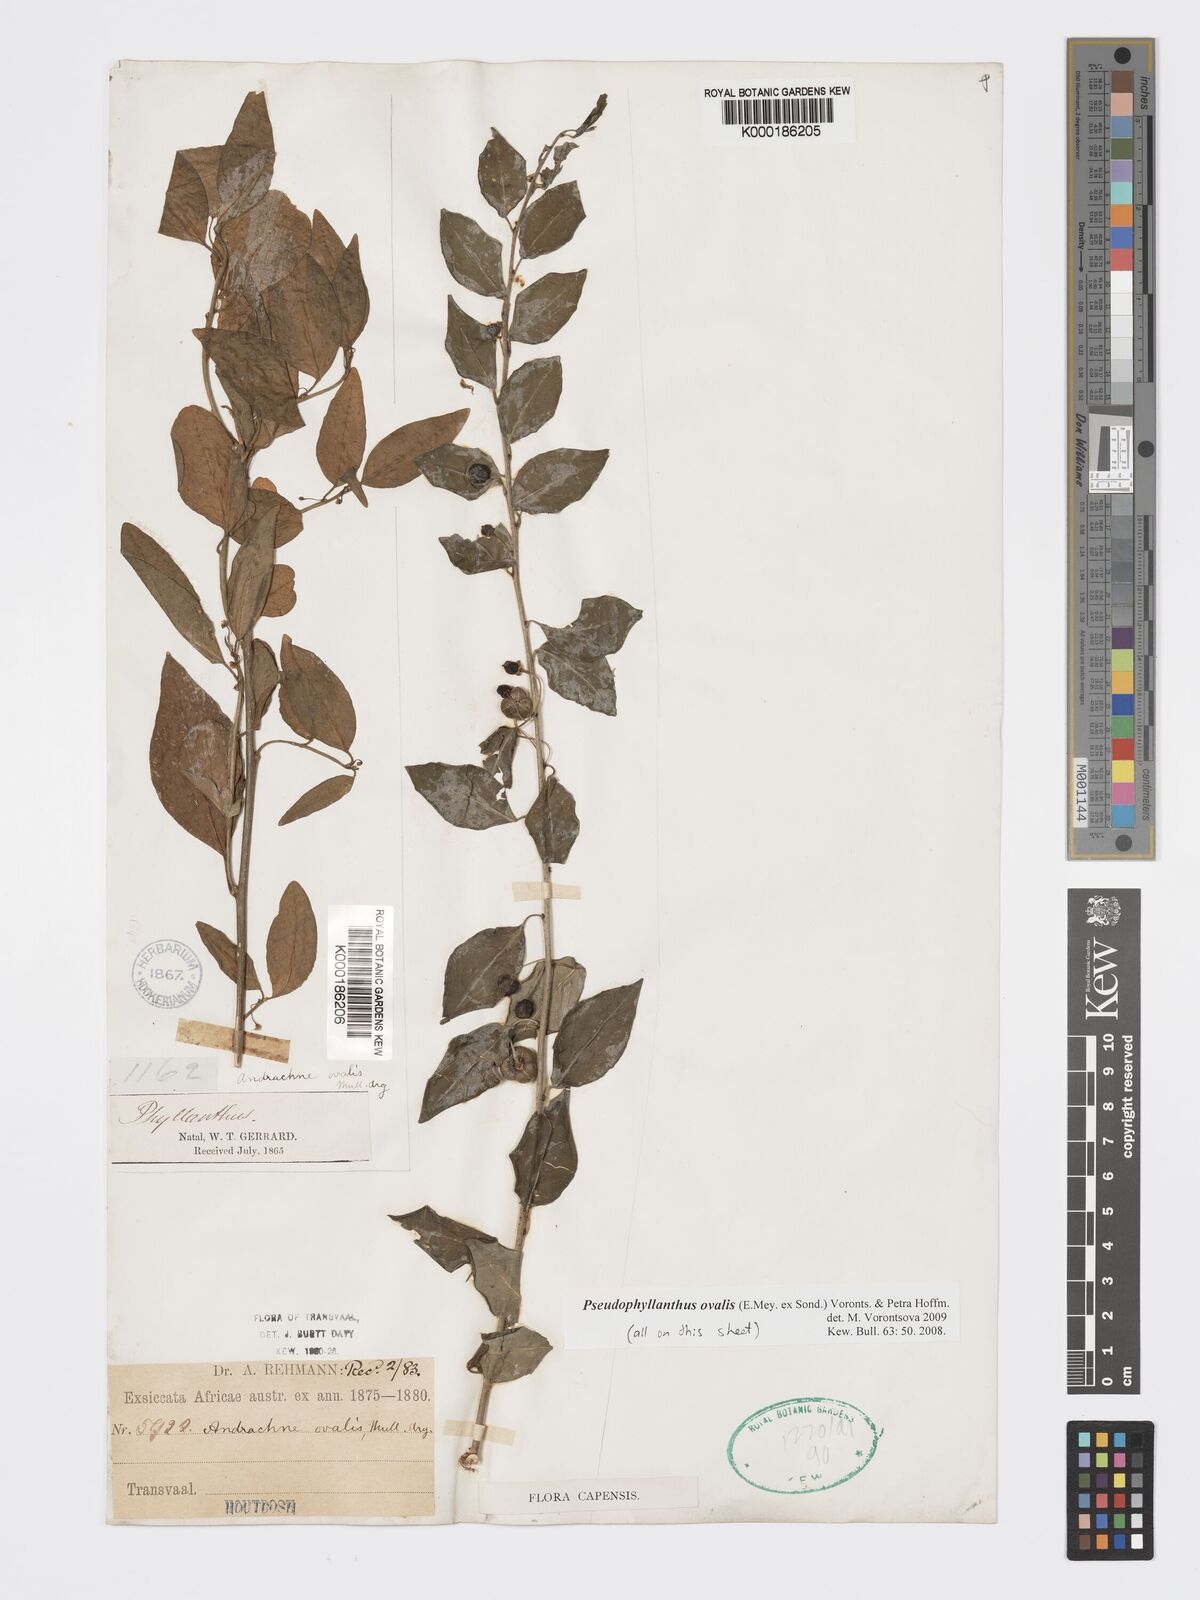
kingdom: Plantae
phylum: Tracheophyta
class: Magnoliopsida
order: Malpighiales
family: Phyllanthaceae
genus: Pseudophyllanthus
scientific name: Pseudophyllanthus ovalis
